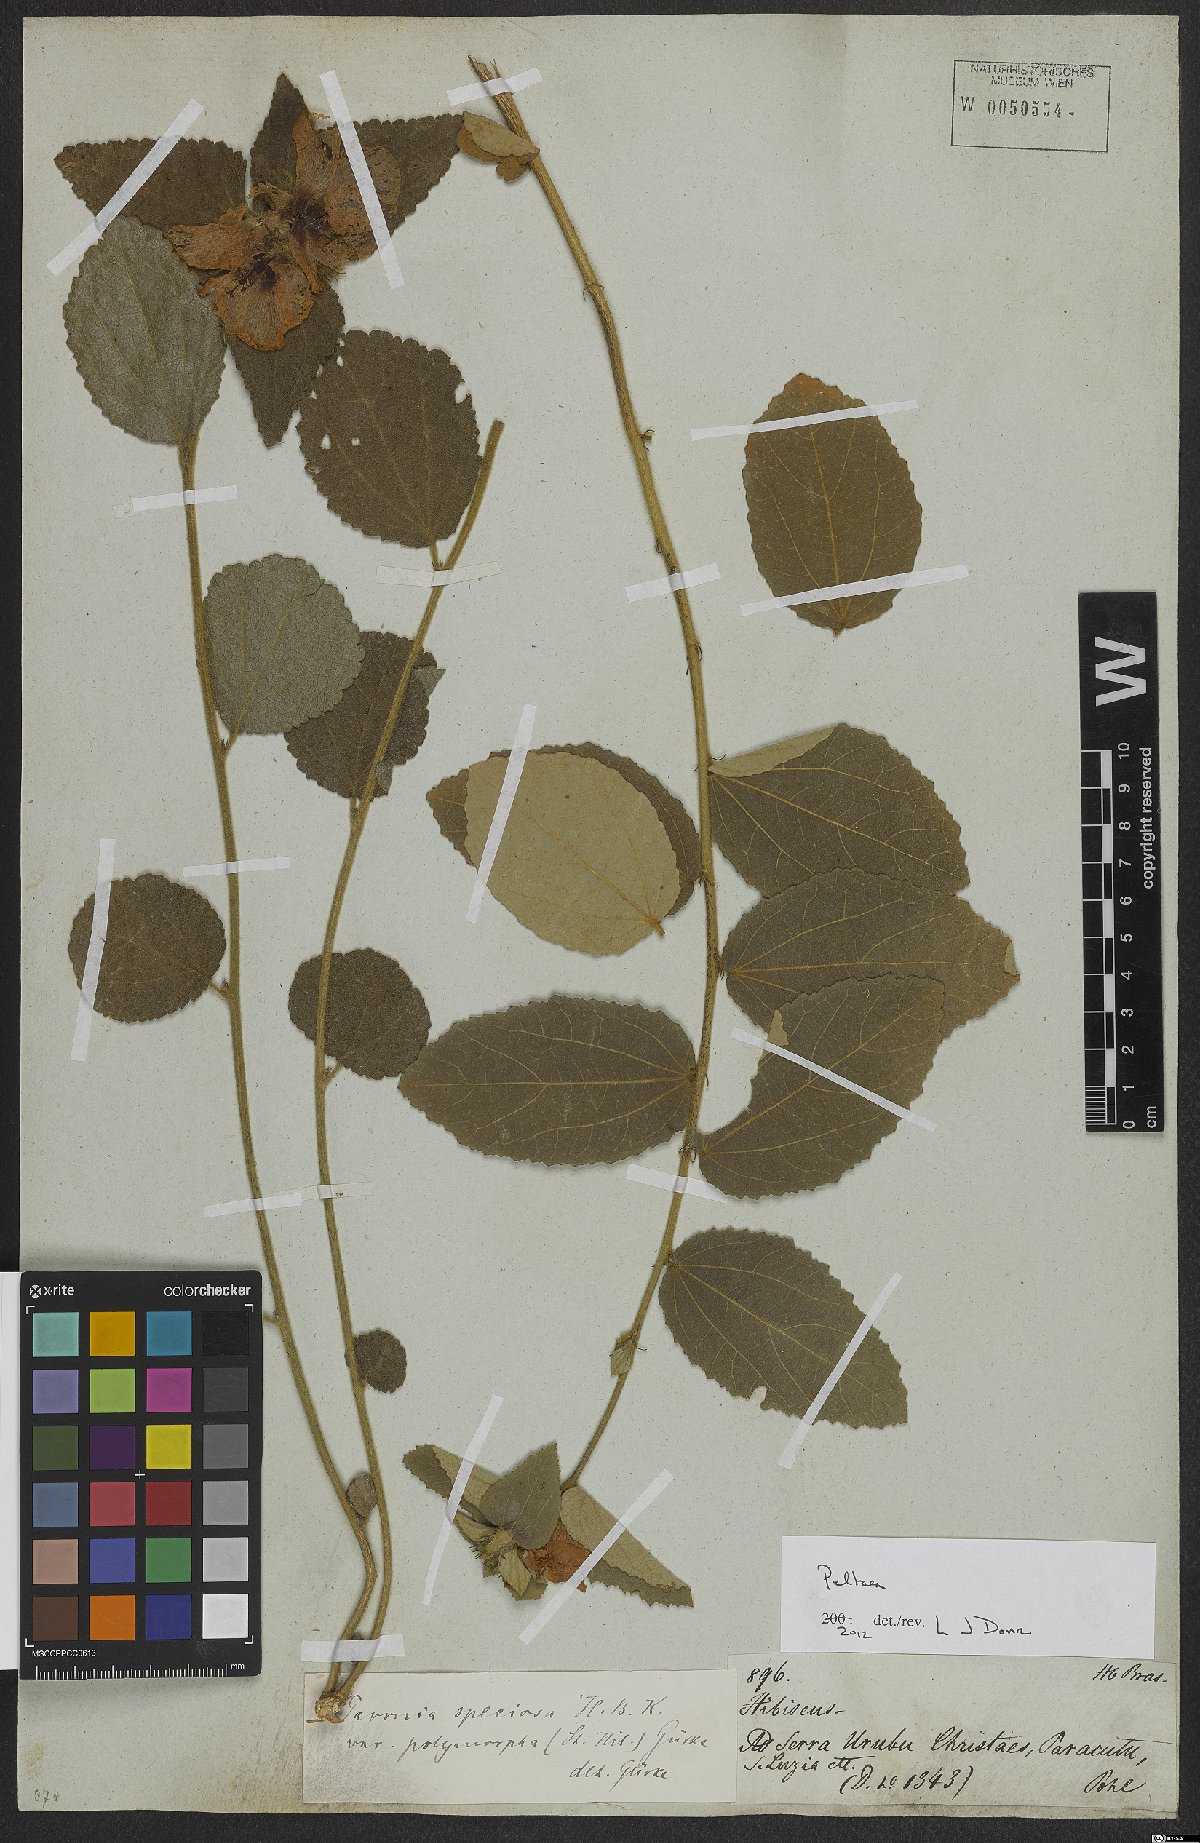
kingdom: Plantae
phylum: Tracheophyta
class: Magnoliopsida
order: Malvales
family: Malvaceae
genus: Peltaea
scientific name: Peltaea
